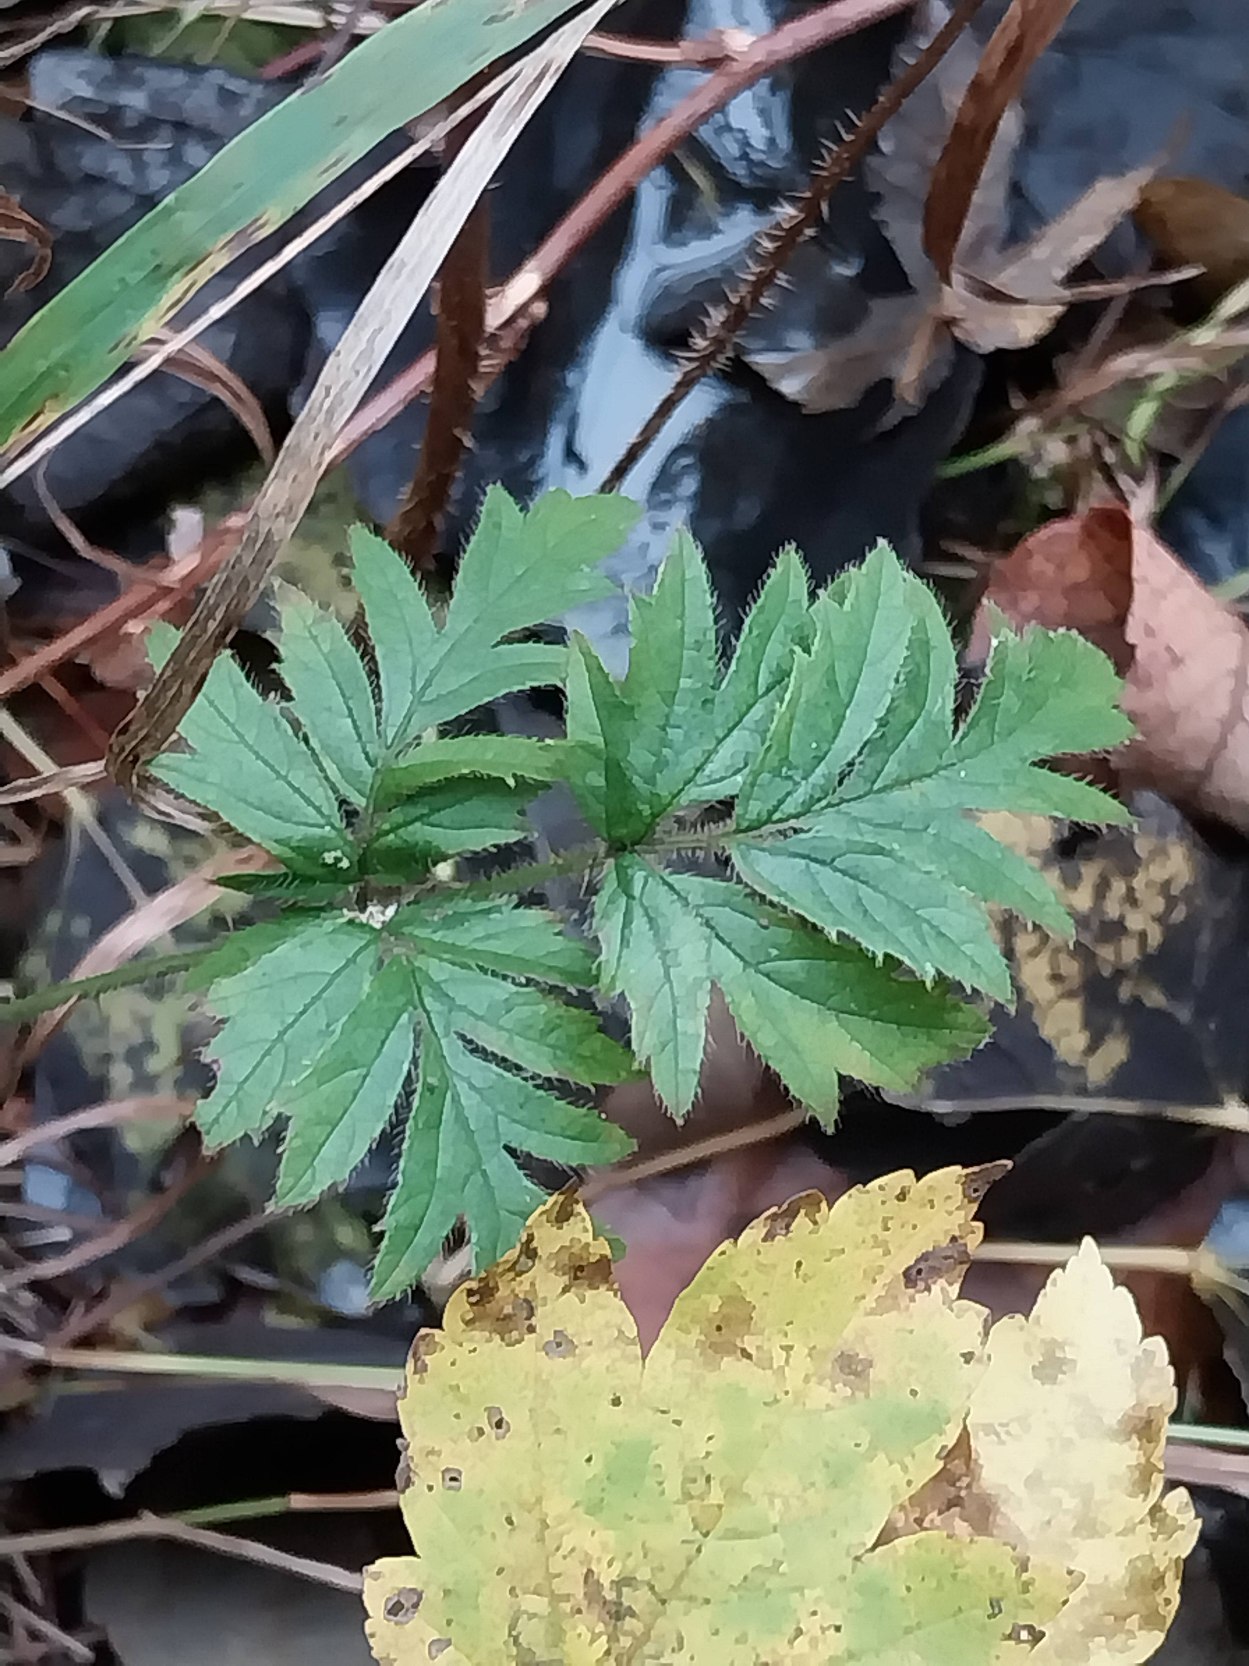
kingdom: Plantae
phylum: Tracheophyta
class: Magnoliopsida
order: Rosales
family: Rosaceae
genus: Rubus
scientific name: Rubus laciniatus
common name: Fliget brombær
